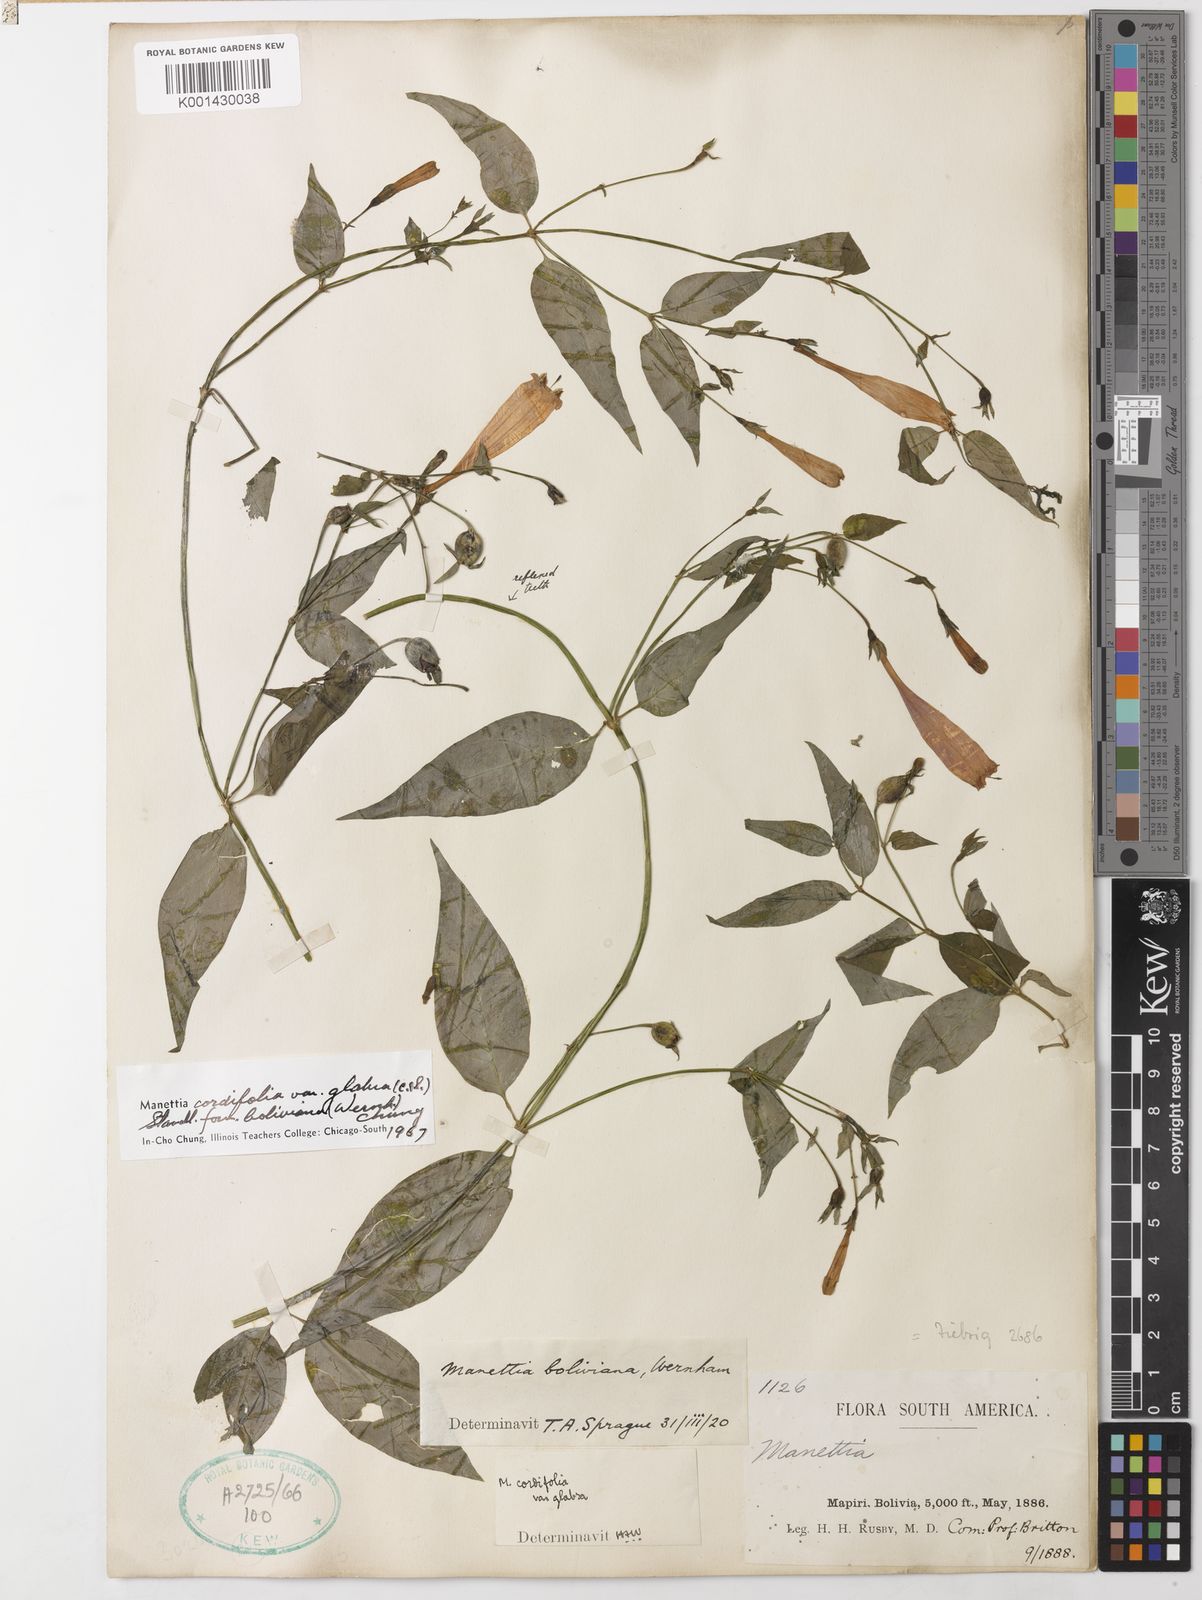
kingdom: Plantae
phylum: Tracheophyta
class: Magnoliopsida
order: Gentianales
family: Rubiaceae
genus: Manettia
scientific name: Manettia cordifolia
